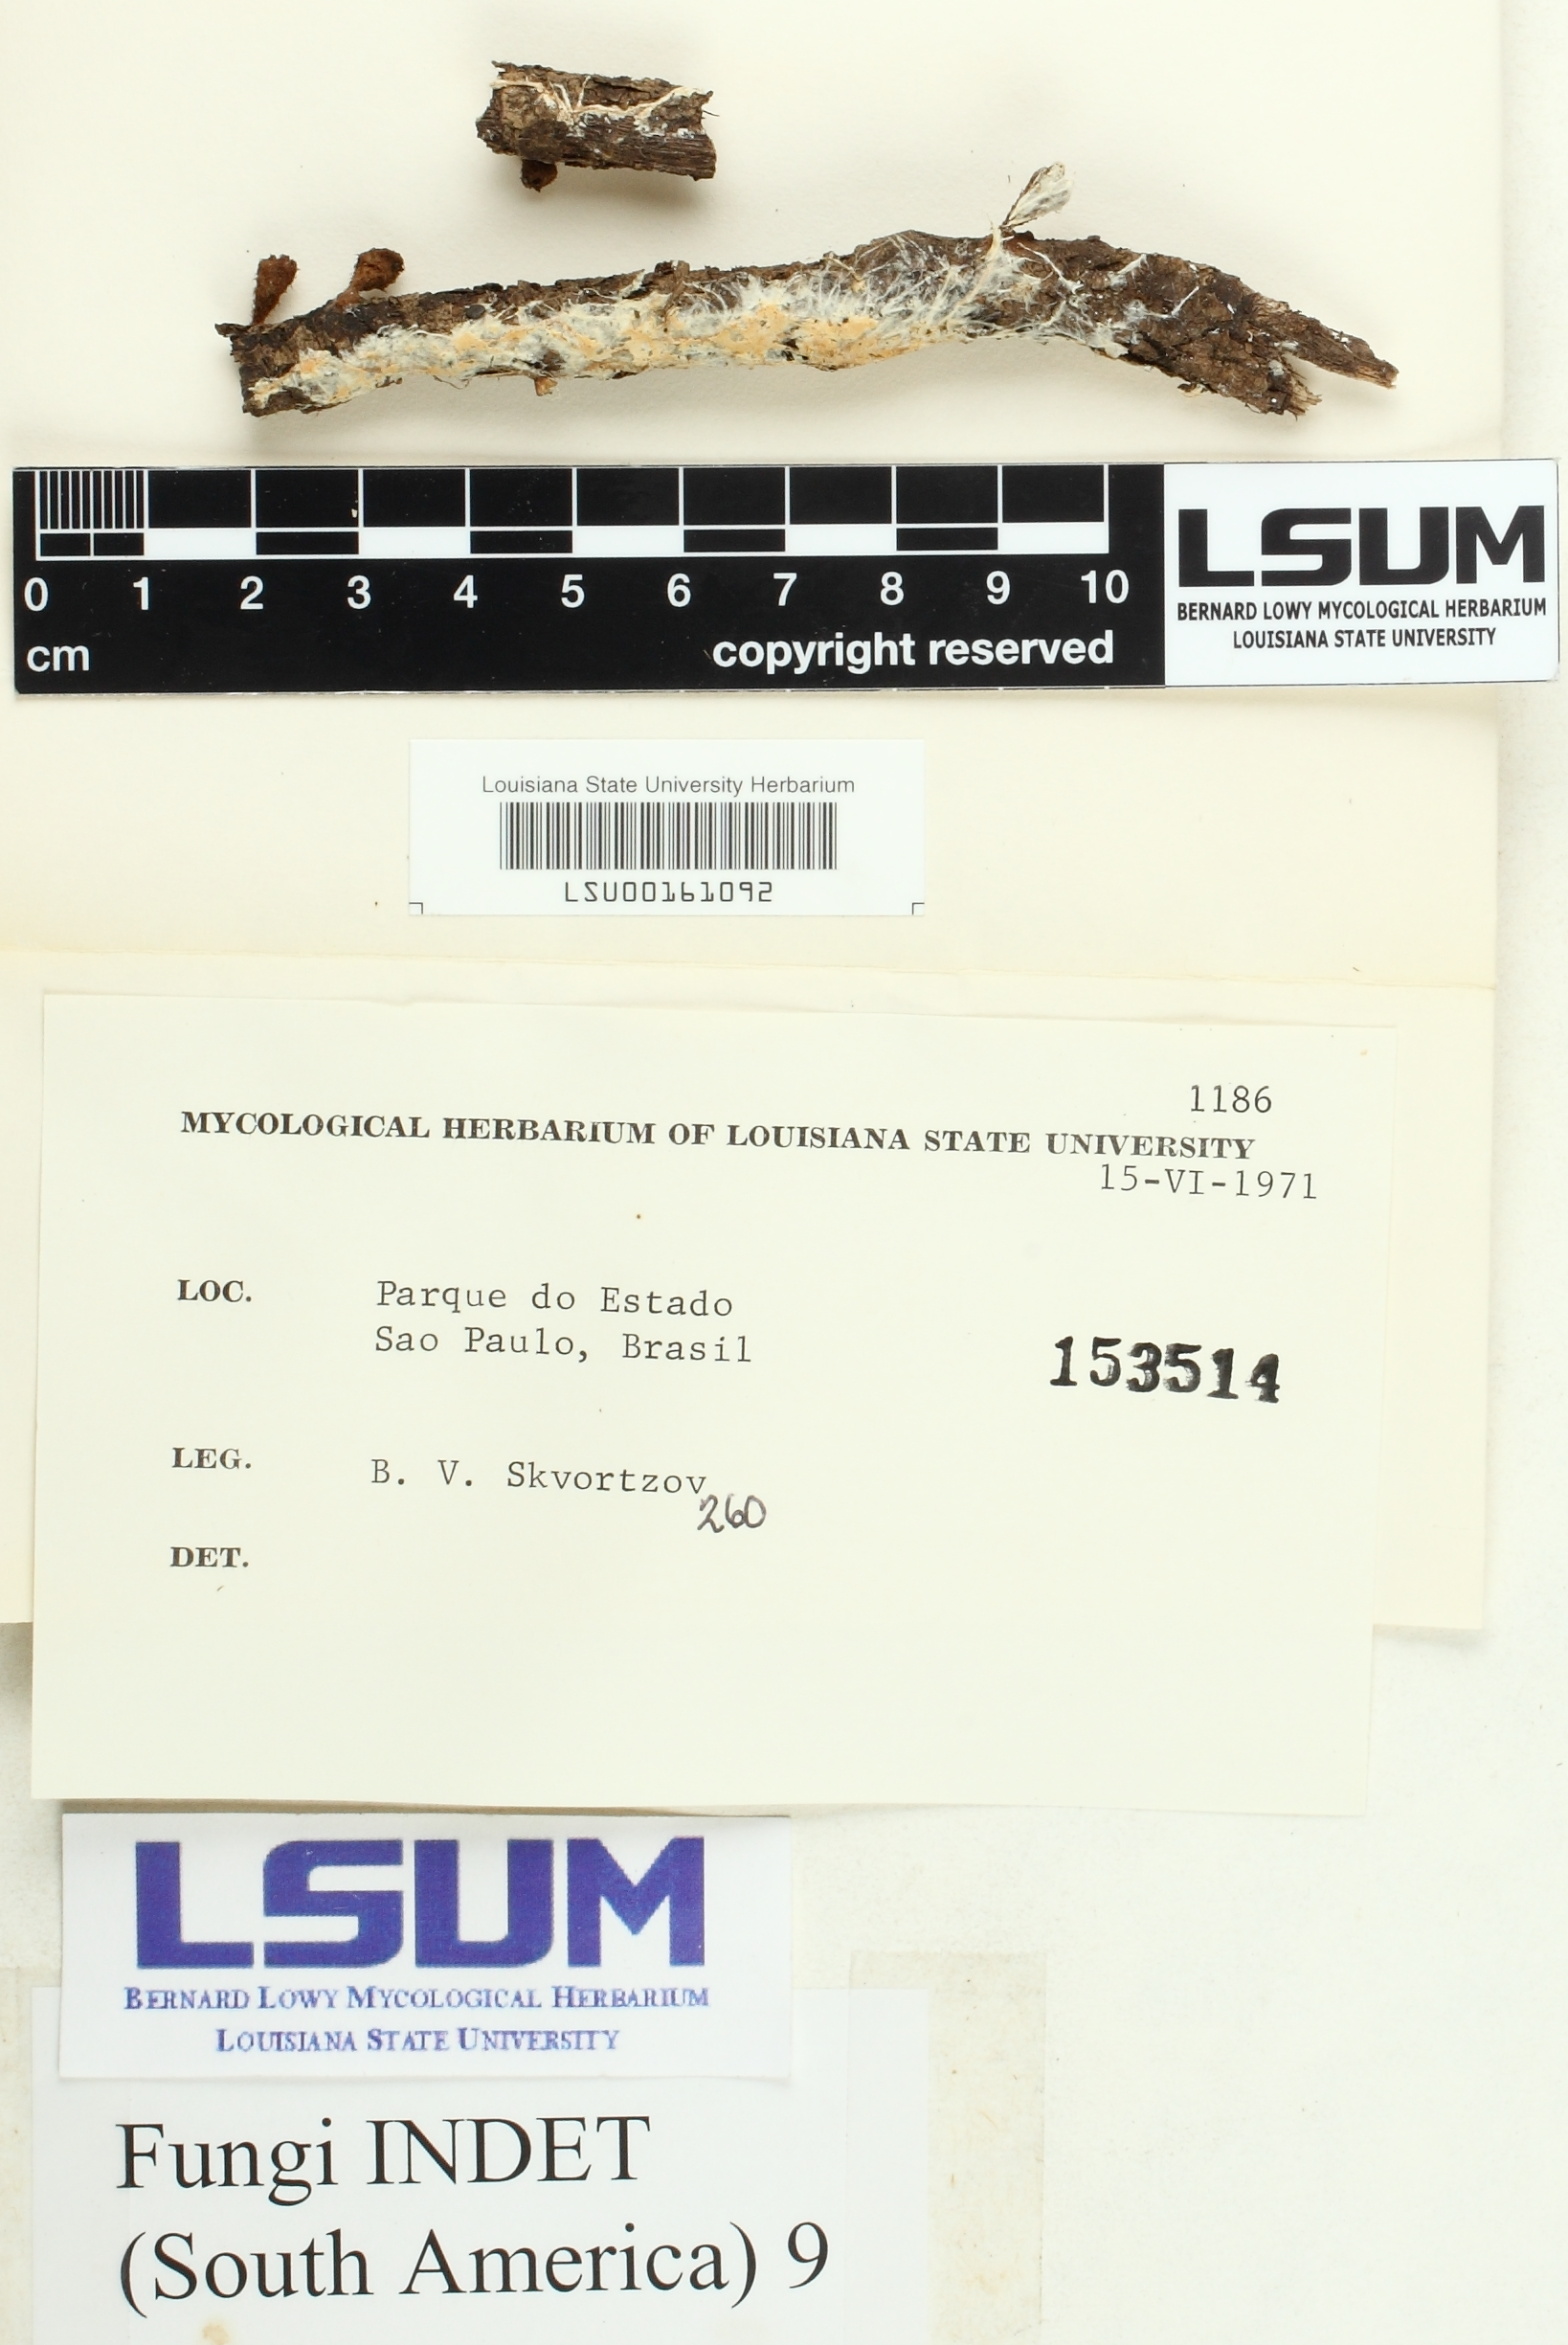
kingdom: Fungi
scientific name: Fungi
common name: Fungi
